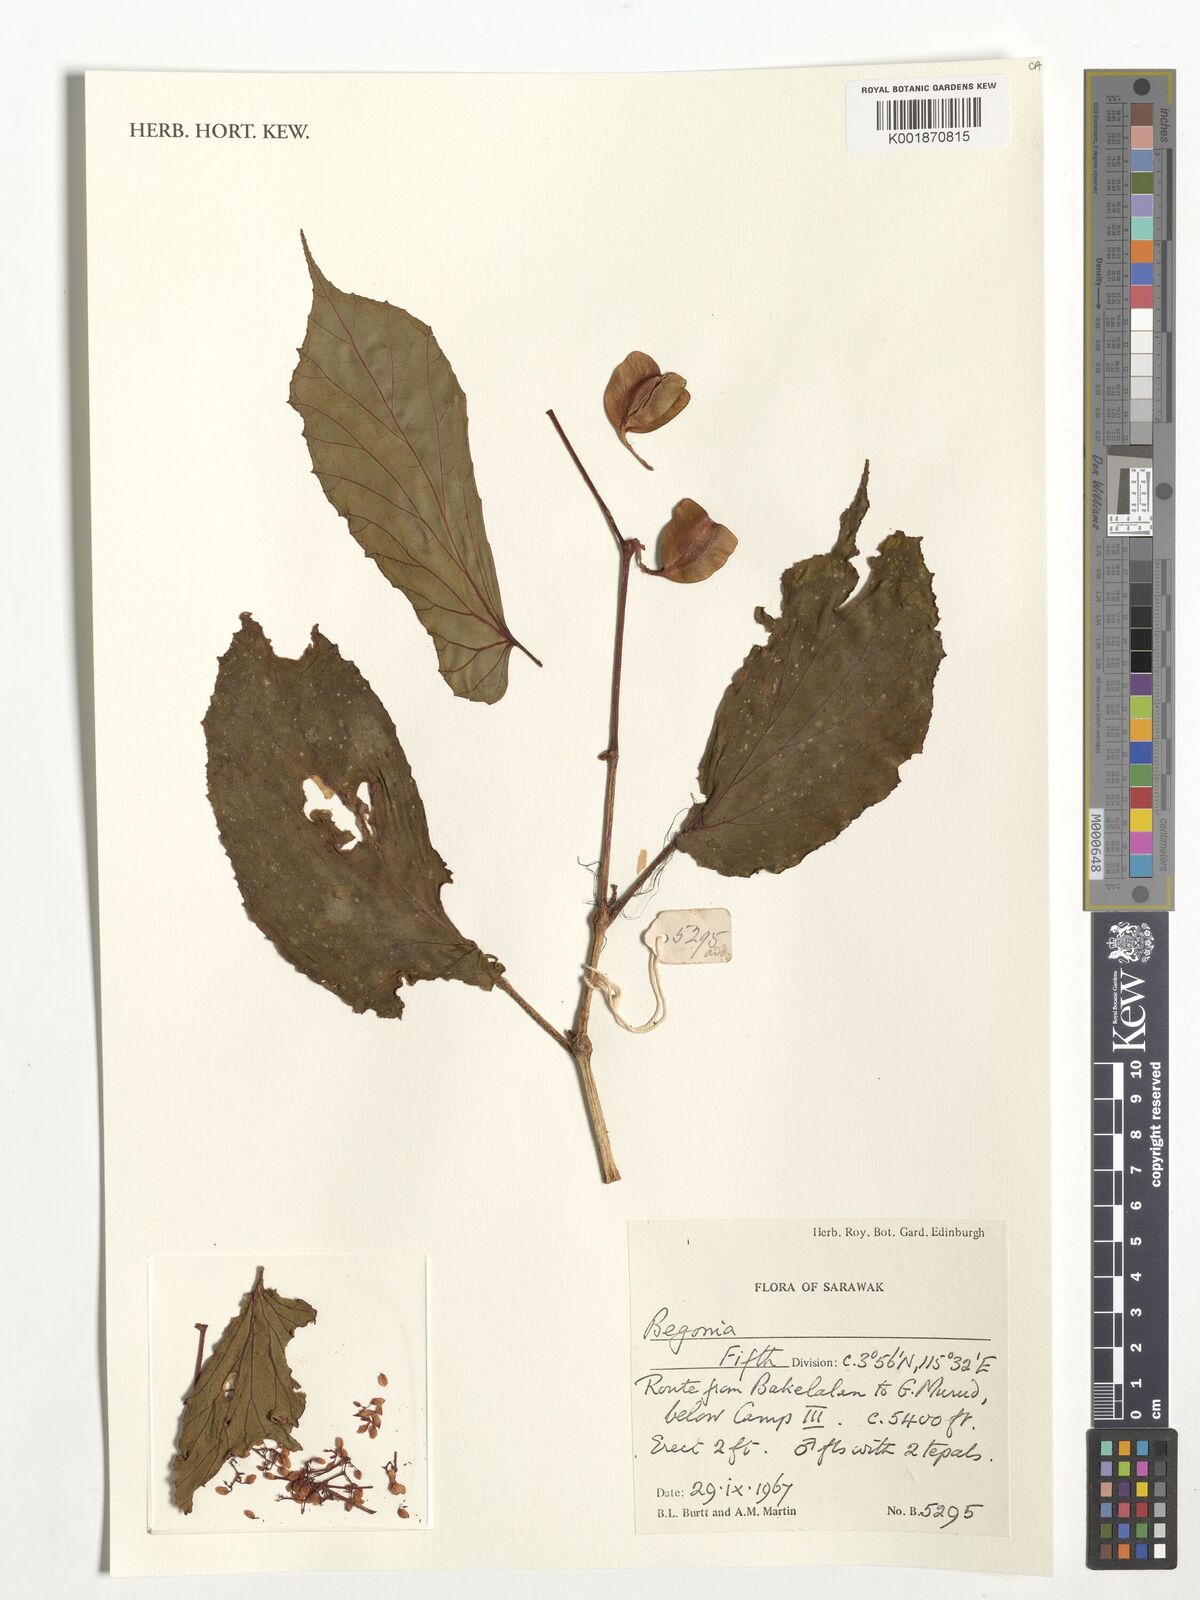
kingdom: Plantae
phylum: Tracheophyta
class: Magnoliopsida
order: Cucurbitales
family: Begoniaceae
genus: Begonia
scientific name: Begonia
